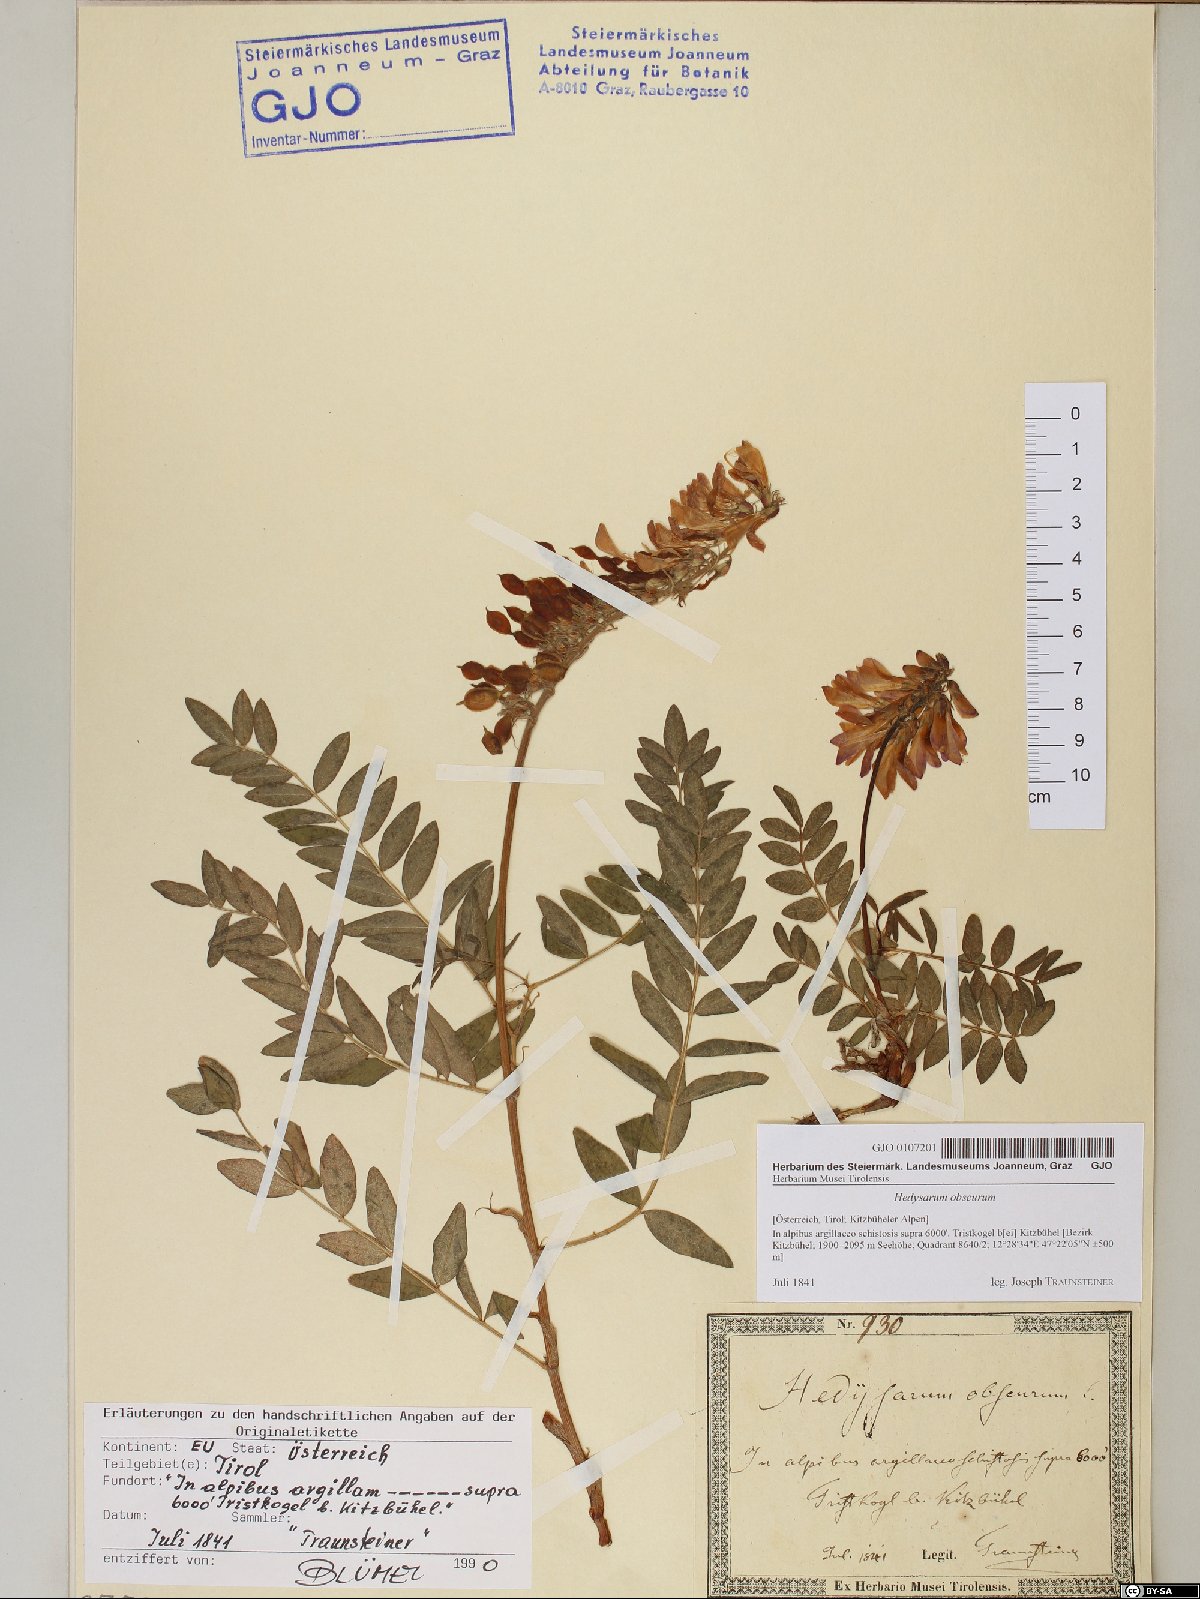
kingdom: Plantae
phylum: Tracheophyta
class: Magnoliopsida
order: Fabales
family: Fabaceae
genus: Hedysarum
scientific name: Hedysarum hedysaroides
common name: Alpine french-honeysuckle
